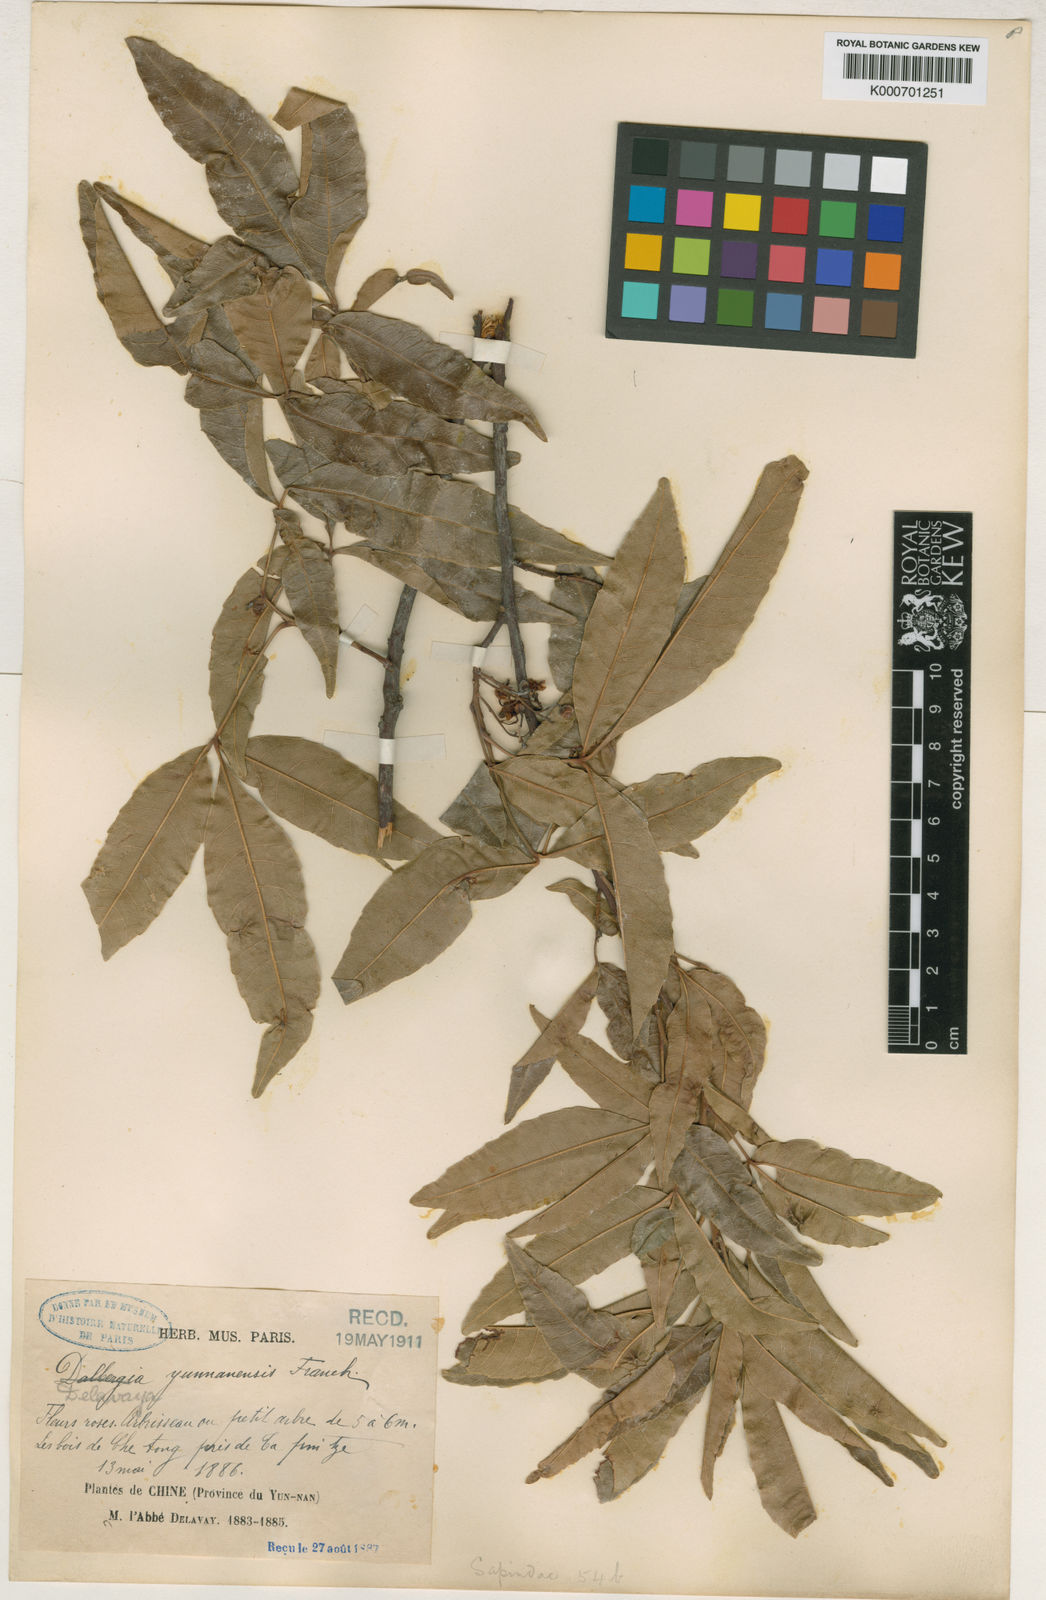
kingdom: Plantae
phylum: Tracheophyta
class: Magnoliopsida
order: Sapindales
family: Sapindaceae
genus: Delavaya
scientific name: Delavaya toxocarpa
